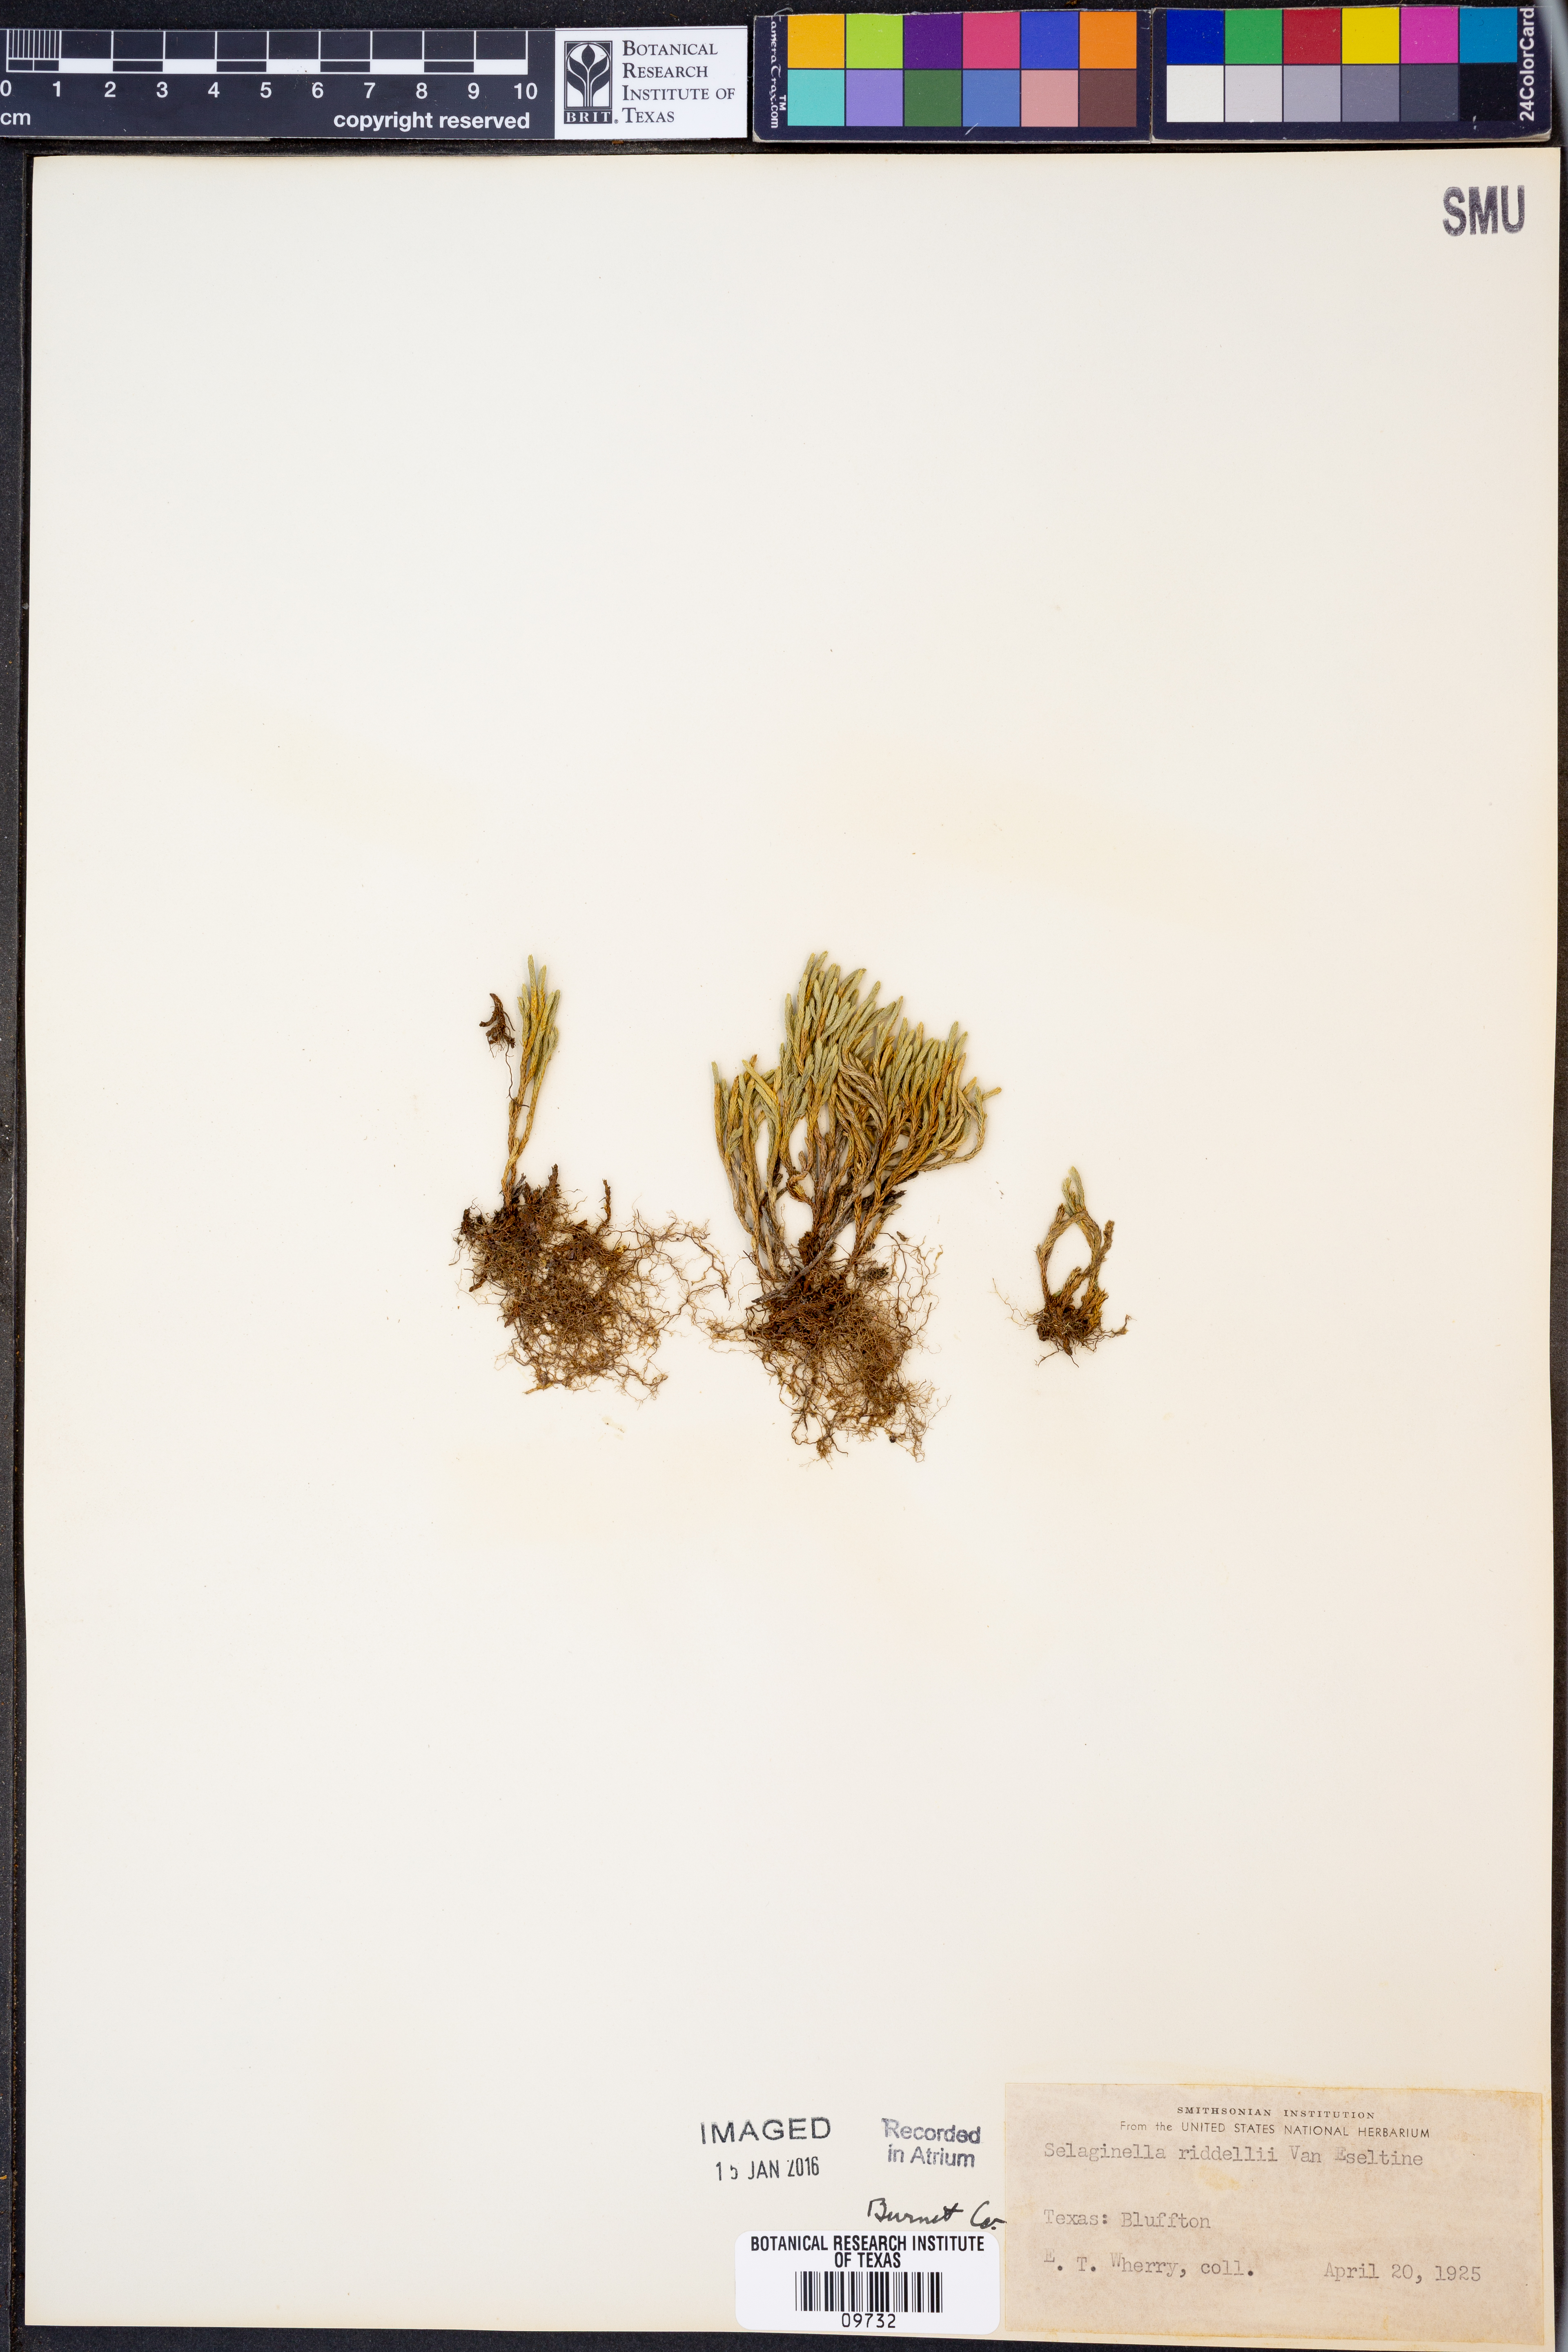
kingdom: Plantae
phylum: Tracheophyta
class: Lycopodiopsida
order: Selaginellales
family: Selaginellaceae
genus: Selaginella
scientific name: Selaginella corallina
